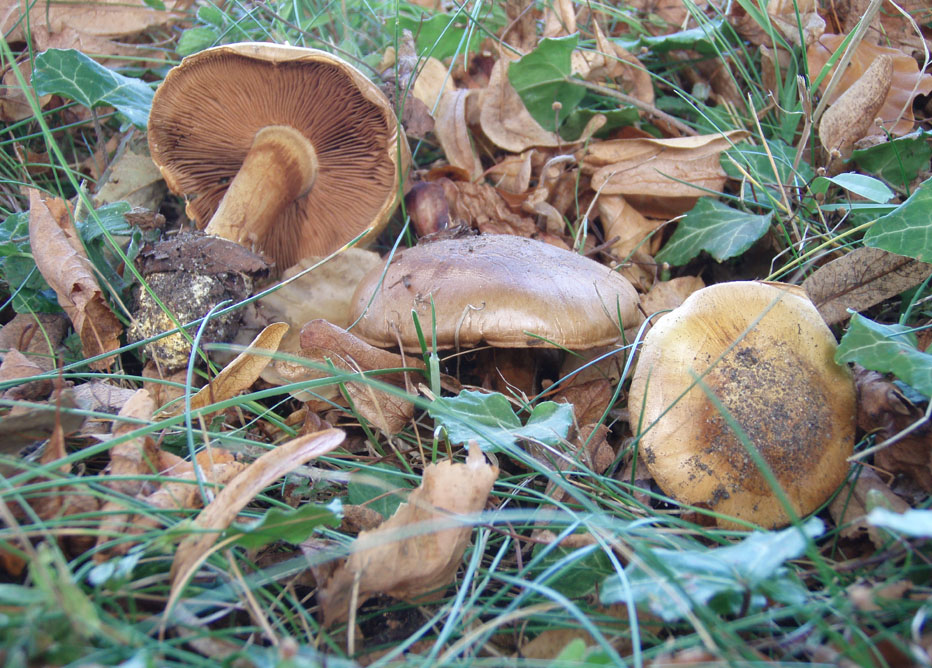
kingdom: Fungi
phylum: Basidiomycota
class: Agaricomycetes
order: Agaricales
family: Cortinariaceae
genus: Calonarius
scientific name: Calonarius alcalinophilus
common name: gyldenbrun slørhat
